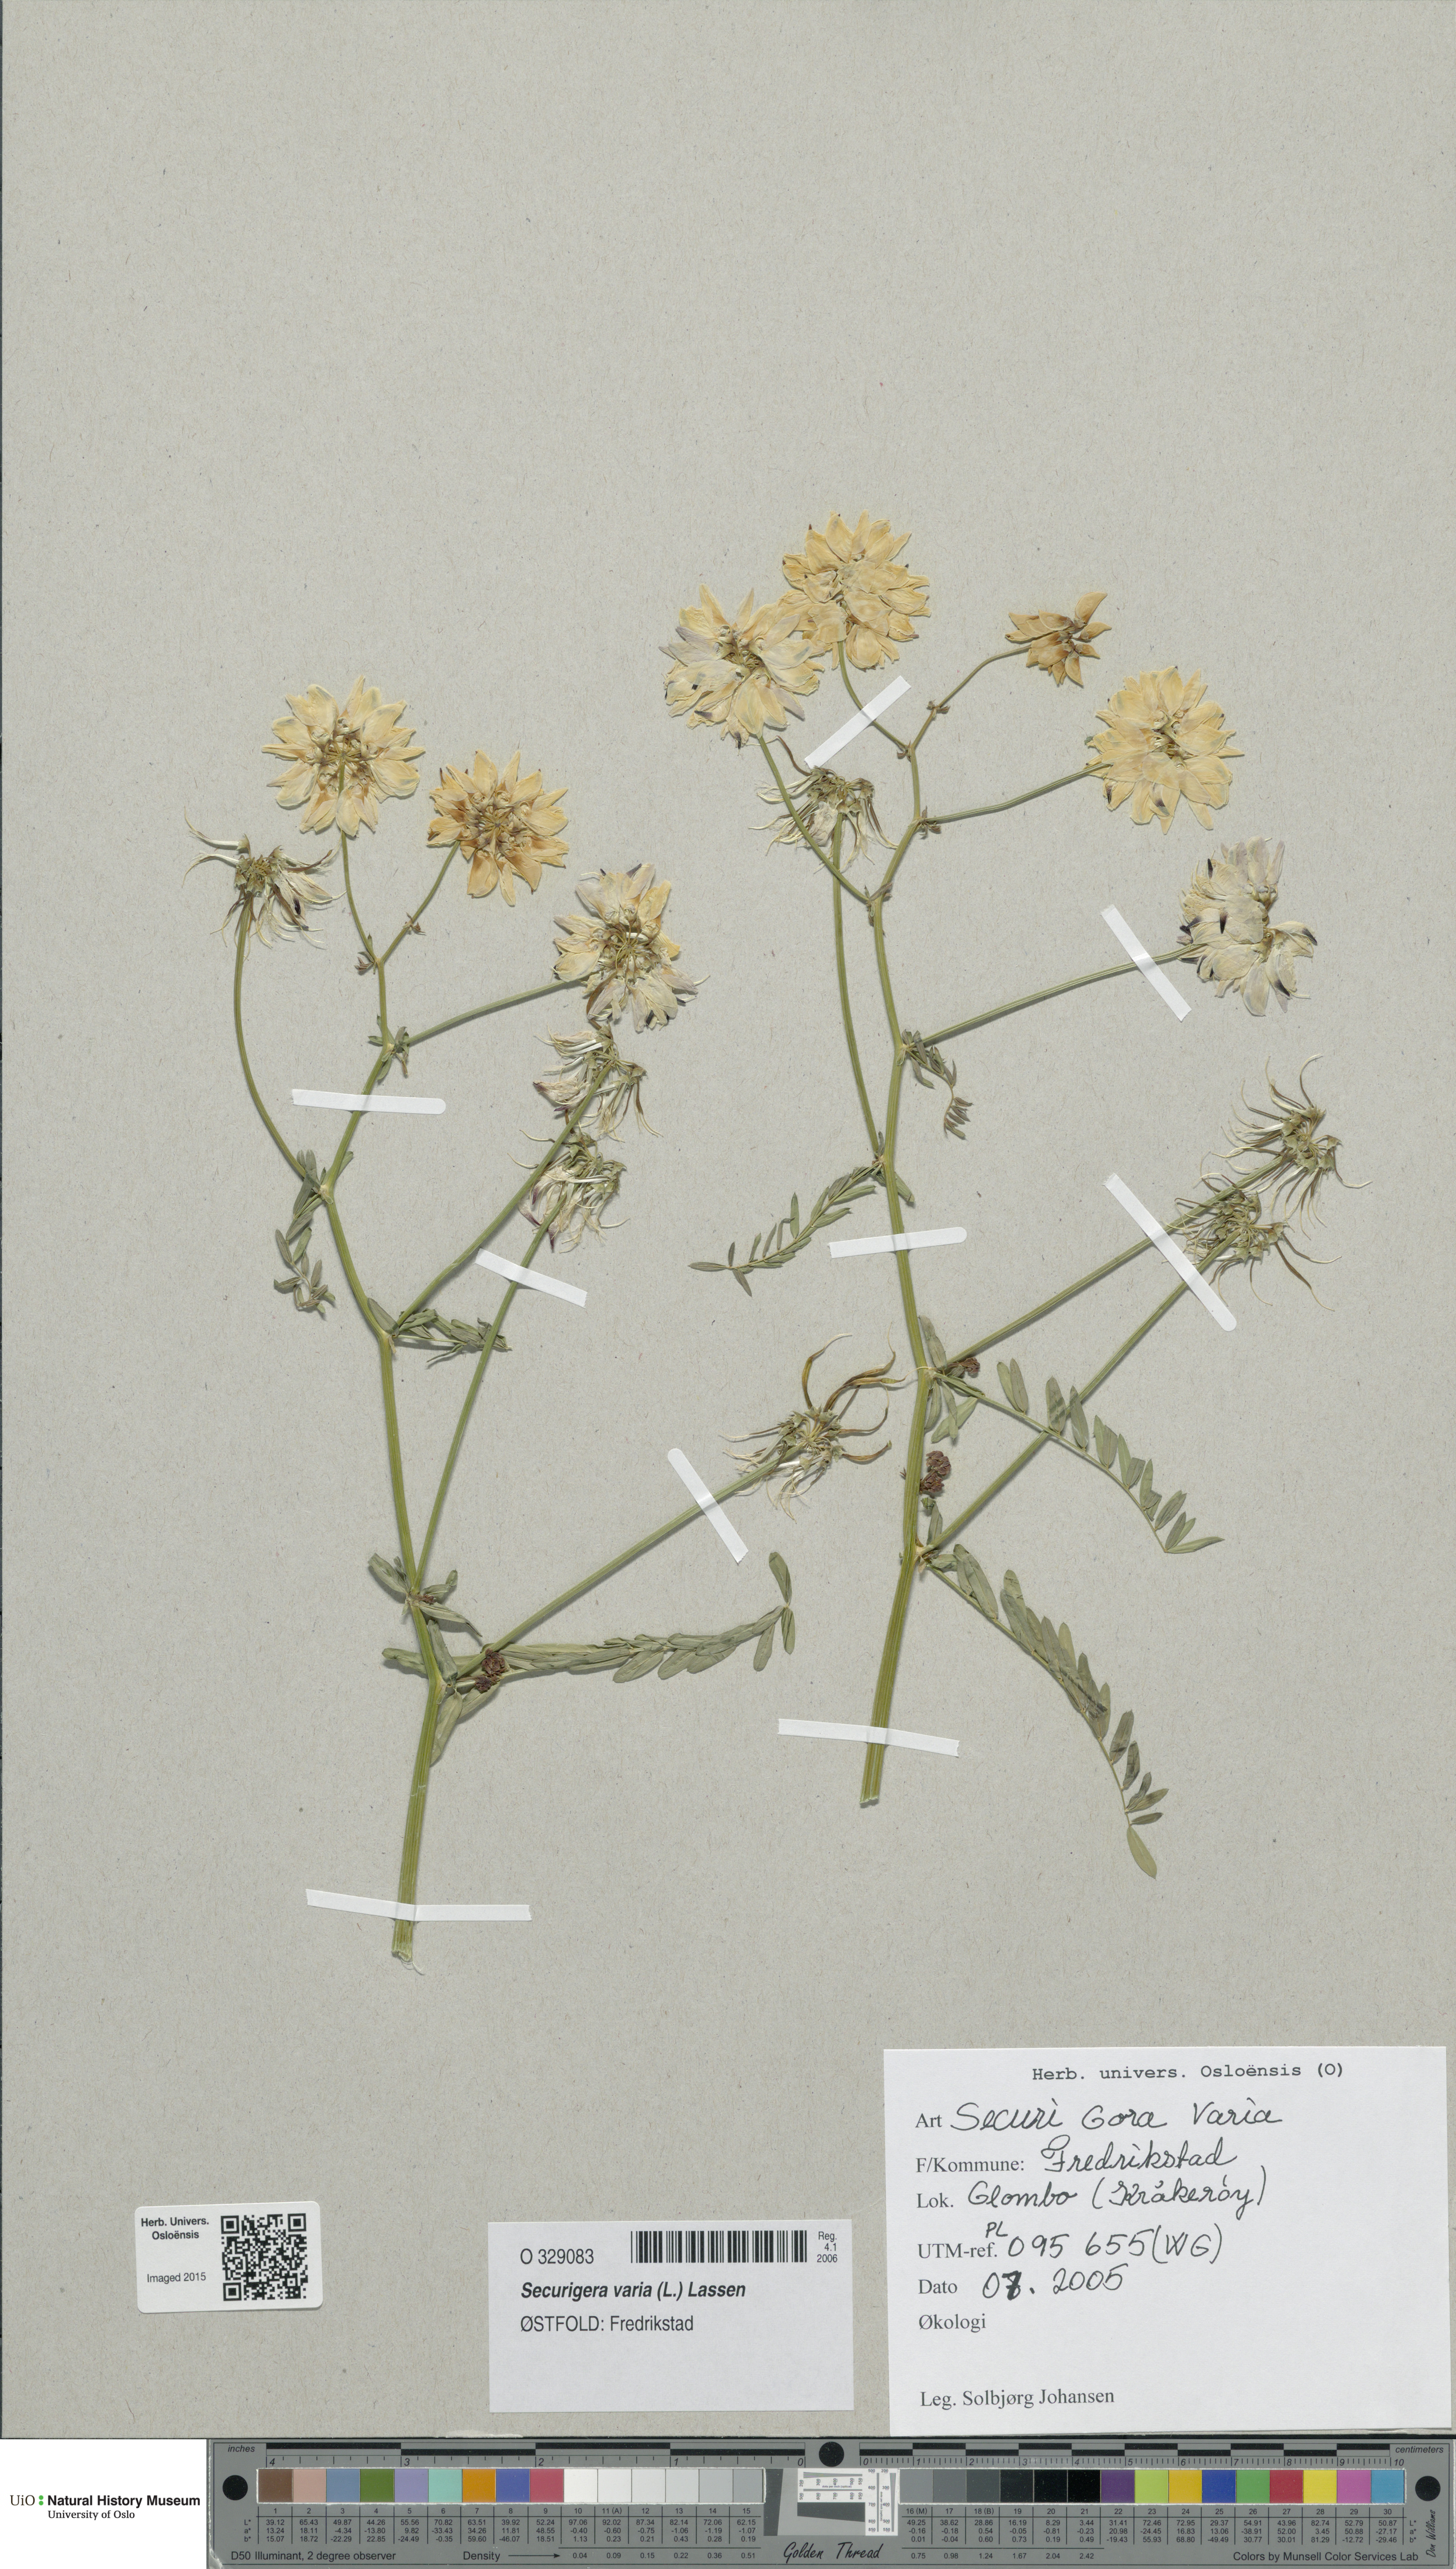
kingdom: Plantae
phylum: Tracheophyta
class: Magnoliopsida
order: Fabales
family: Fabaceae
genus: Coronilla
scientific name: Coronilla varia
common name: Crownvetch
